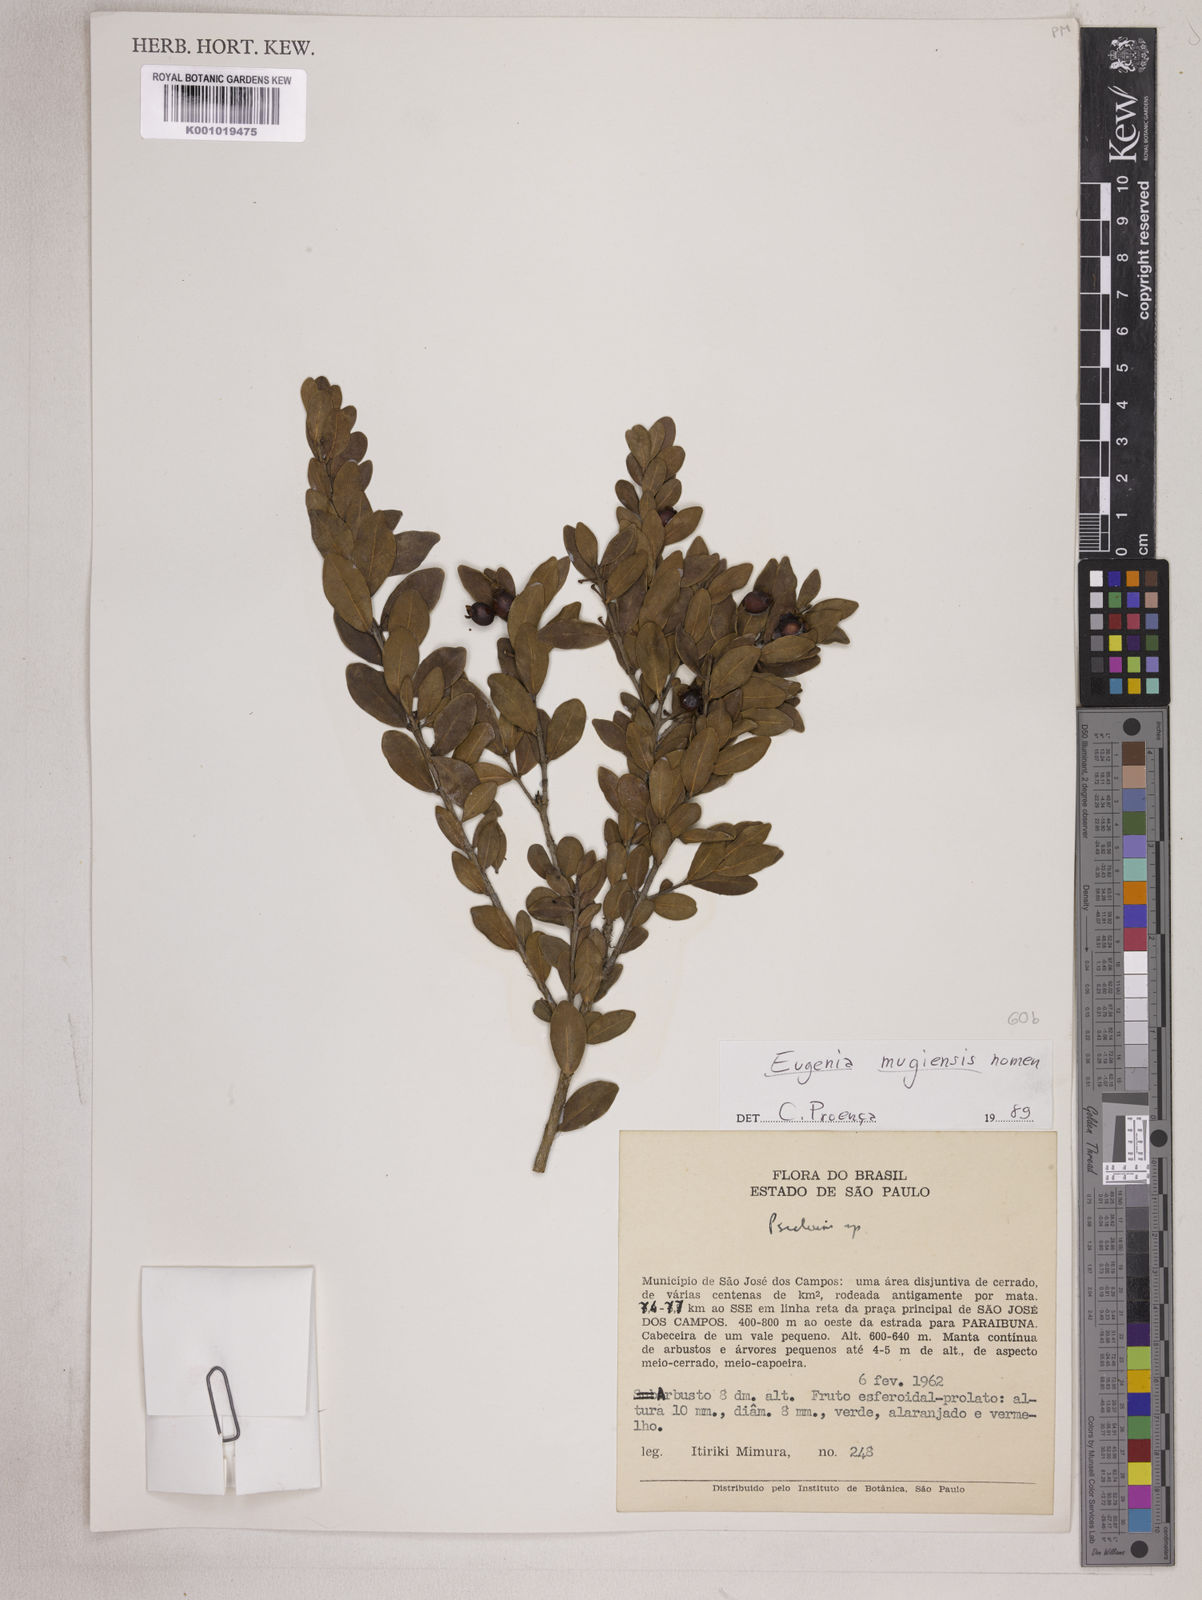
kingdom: Plantae
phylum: Tracheophyta
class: Magnoliopsida
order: Myrtales
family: Myrtaceae
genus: Eugenia
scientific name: Eugenia punicifolia
